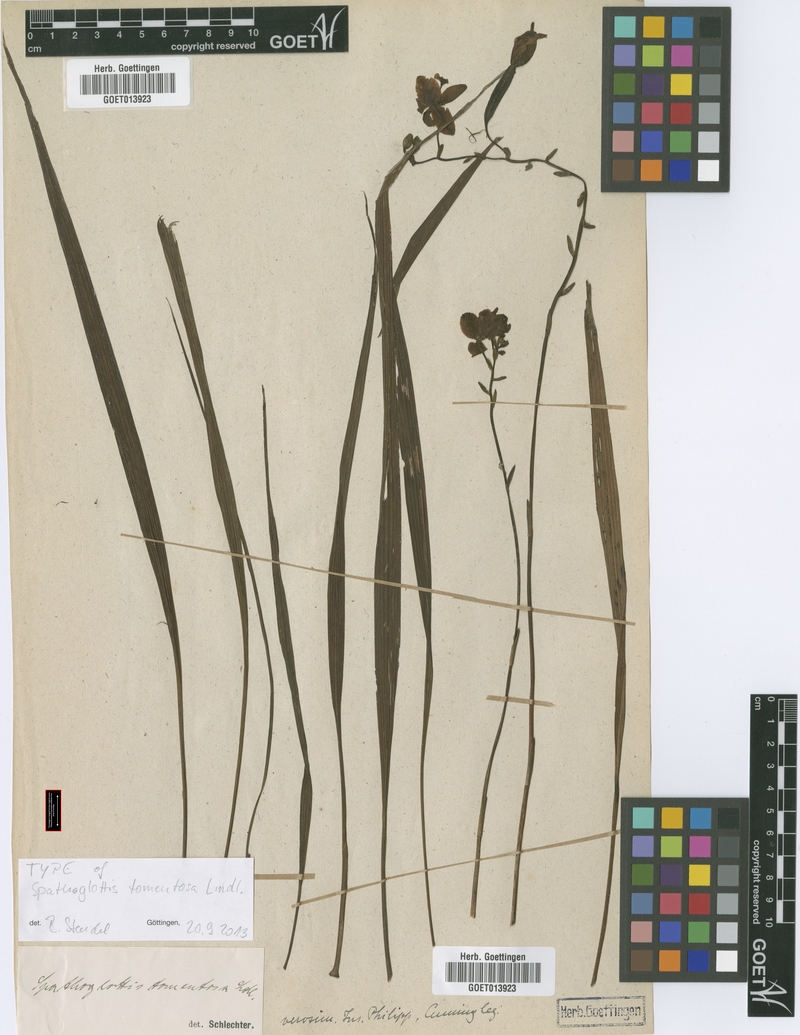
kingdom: Plantae
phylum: Tracheophyta
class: Liliopsida
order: Asparagales
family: Orchidaceae
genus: Spathoglottis
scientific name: Spathoglottis tomentosa
